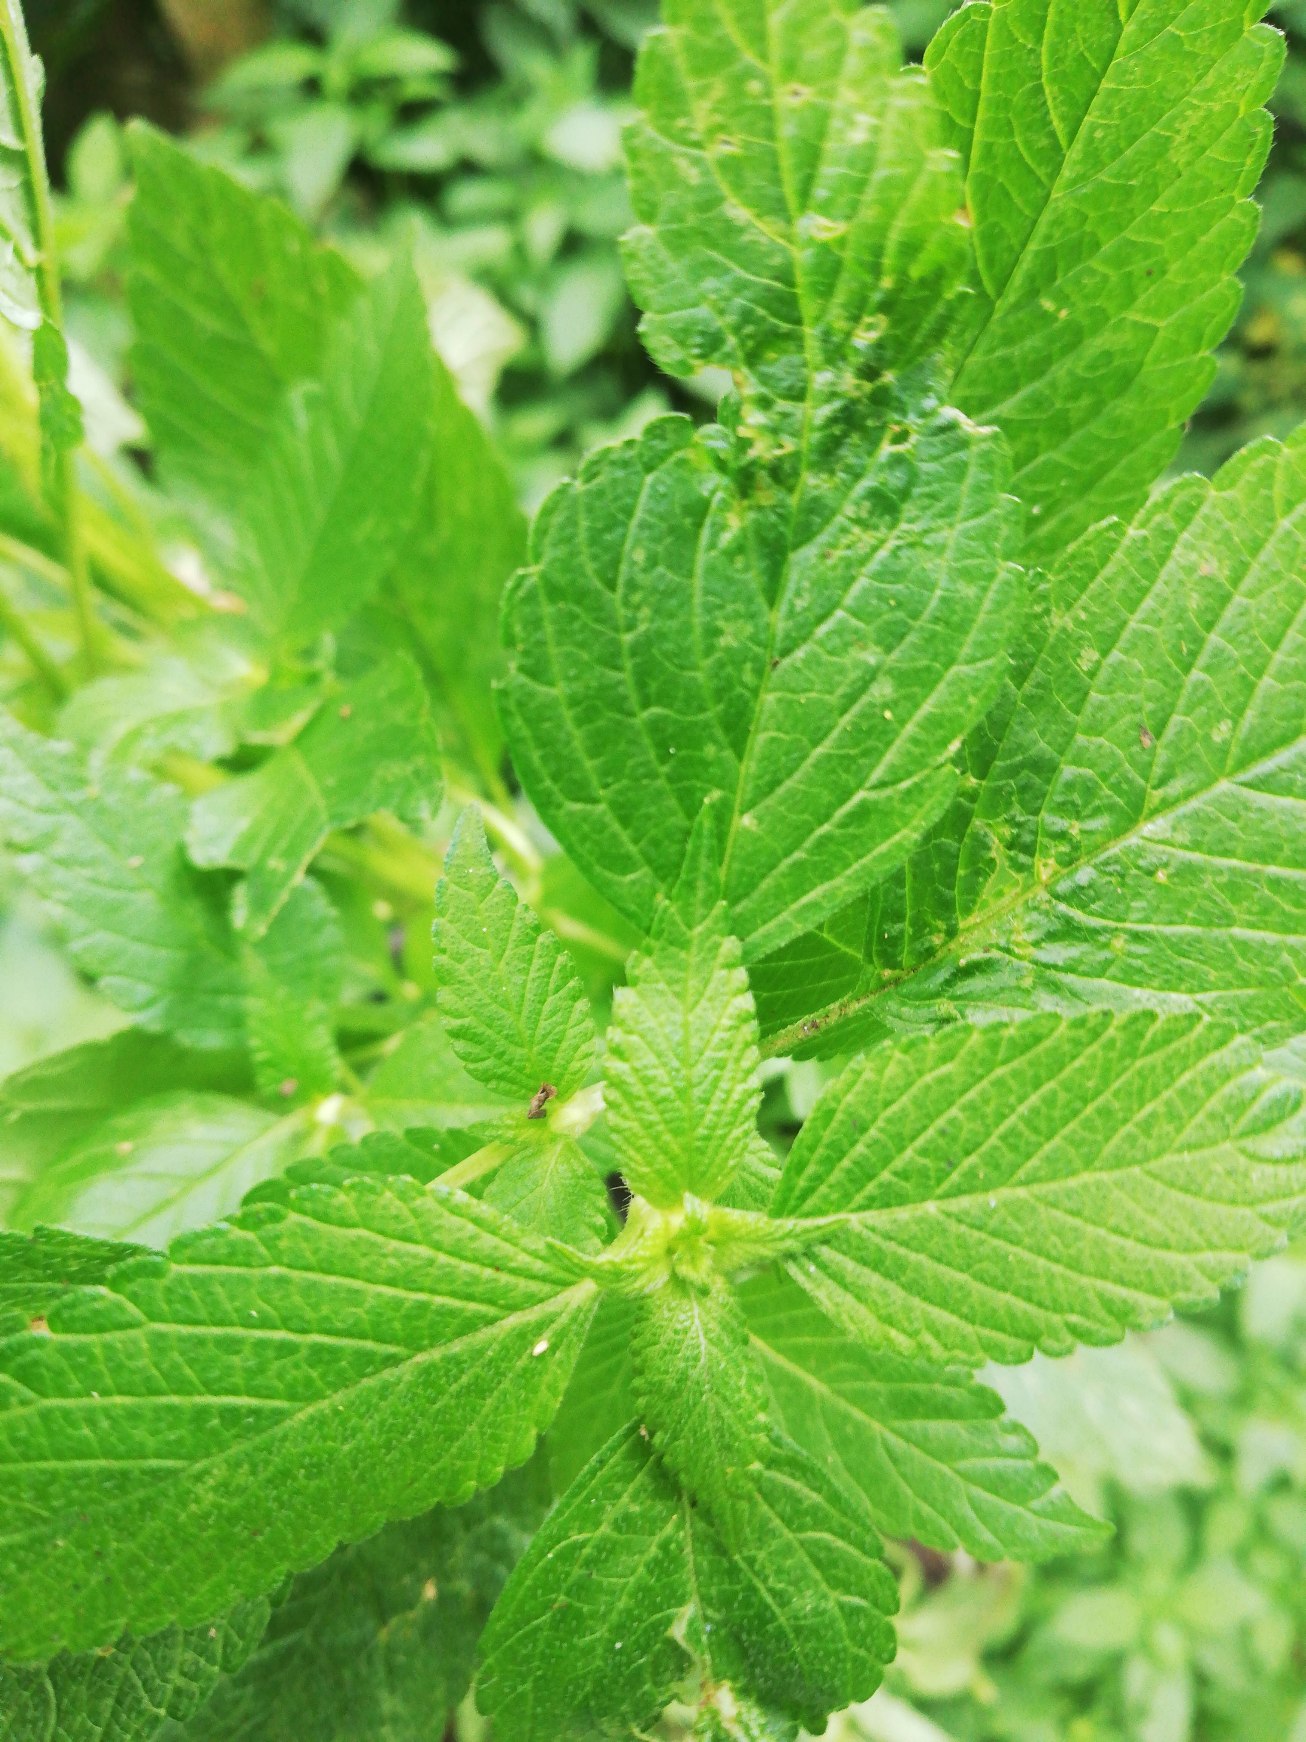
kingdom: Plantae
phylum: Tracheophyta
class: Magnoliopsida
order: Lamiales
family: Lamiaceae
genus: Galeopsis
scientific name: Galeopsis
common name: Hanekroslægten
